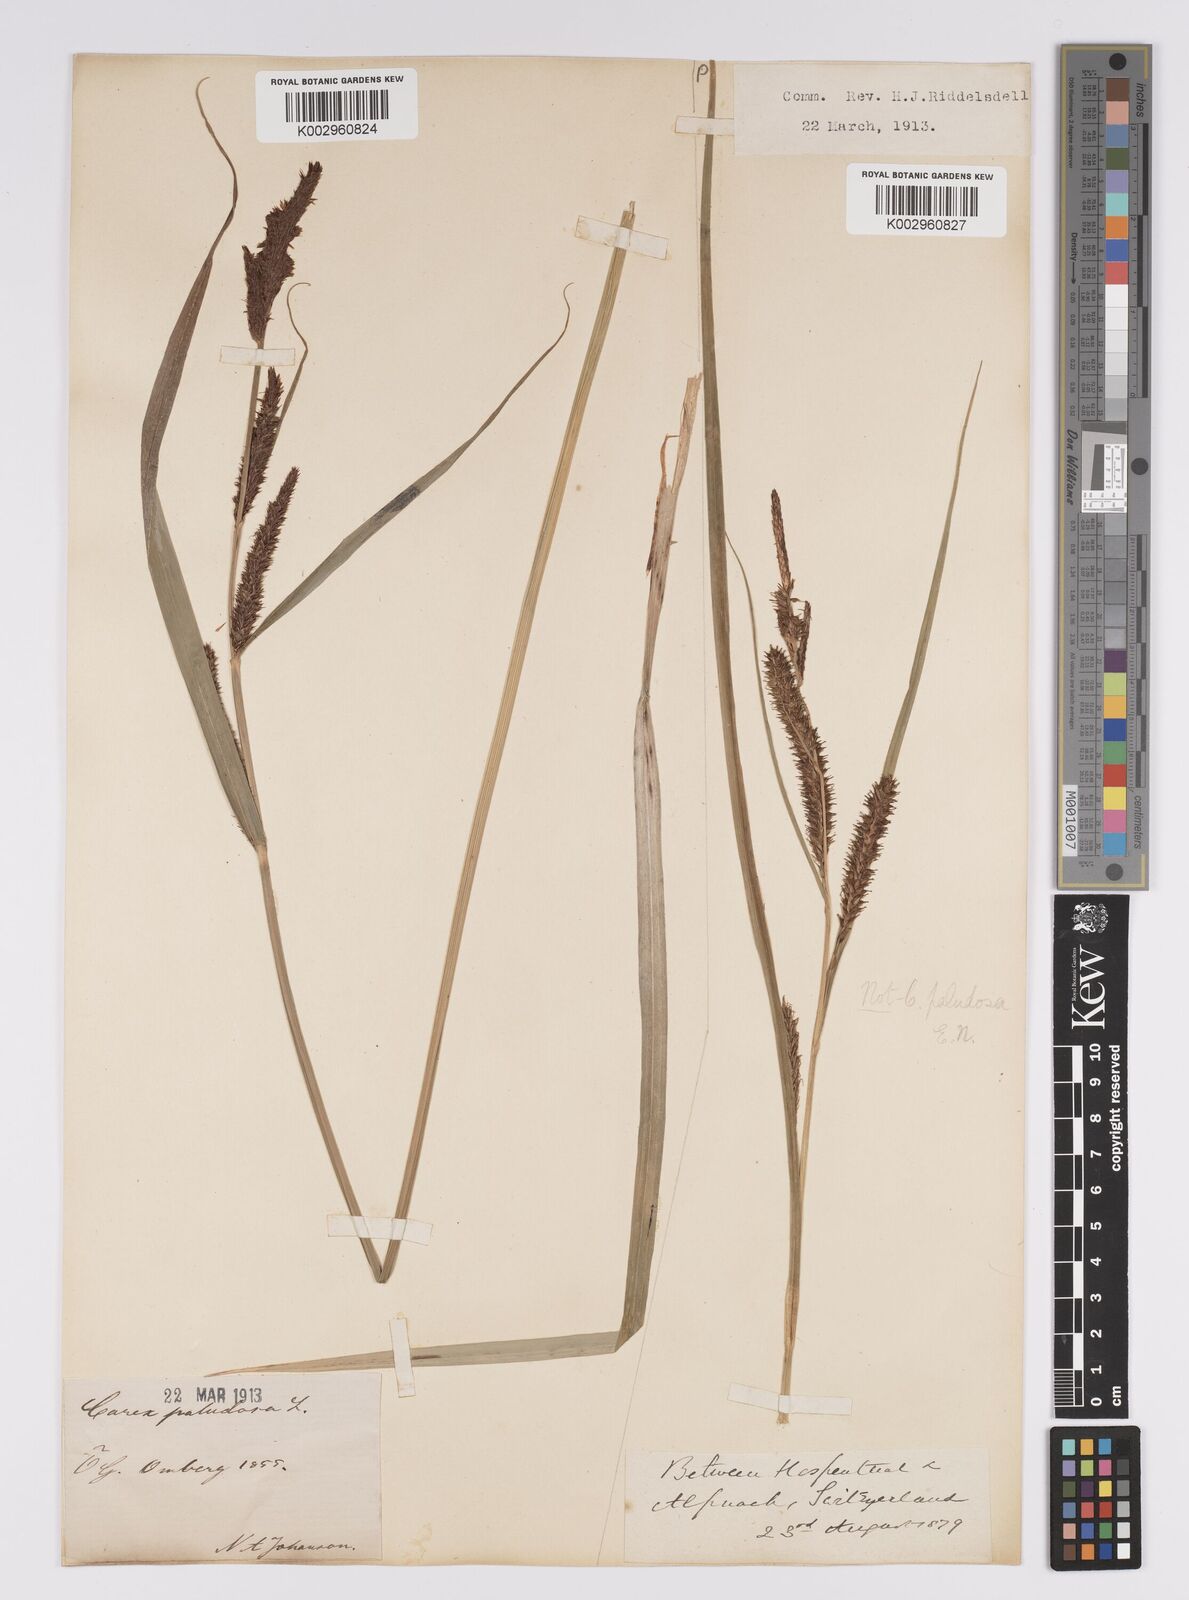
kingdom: Plantae
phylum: Tracheophyta
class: Liliopsida
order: Poales
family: Cyperaceae
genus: Carex
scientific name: Carex acutiformis
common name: Lesser pond-sedge
